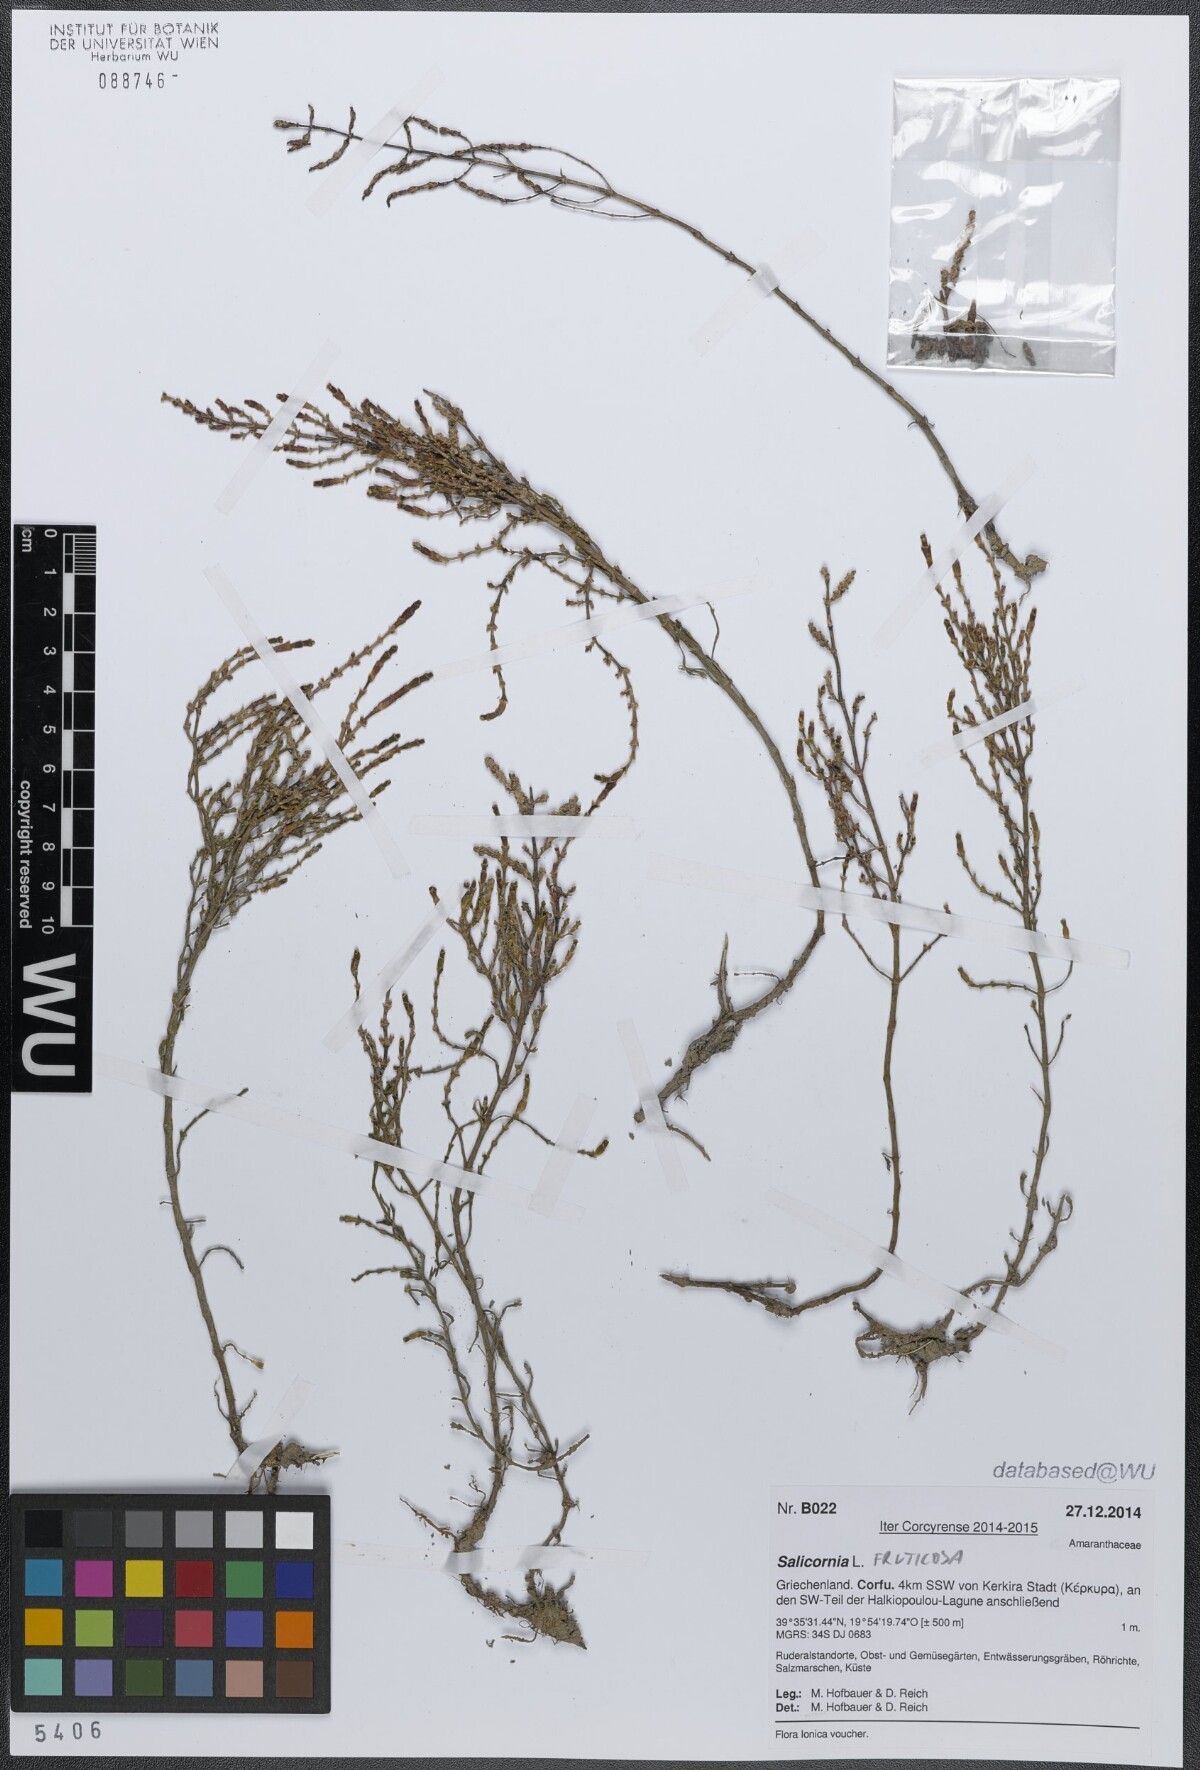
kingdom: Plantae
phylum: Tracheophyta
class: Magnoliopsida
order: Caryophyllales
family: Amaranthaceae
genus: Salicornia
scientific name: Salicornia fruticosa
